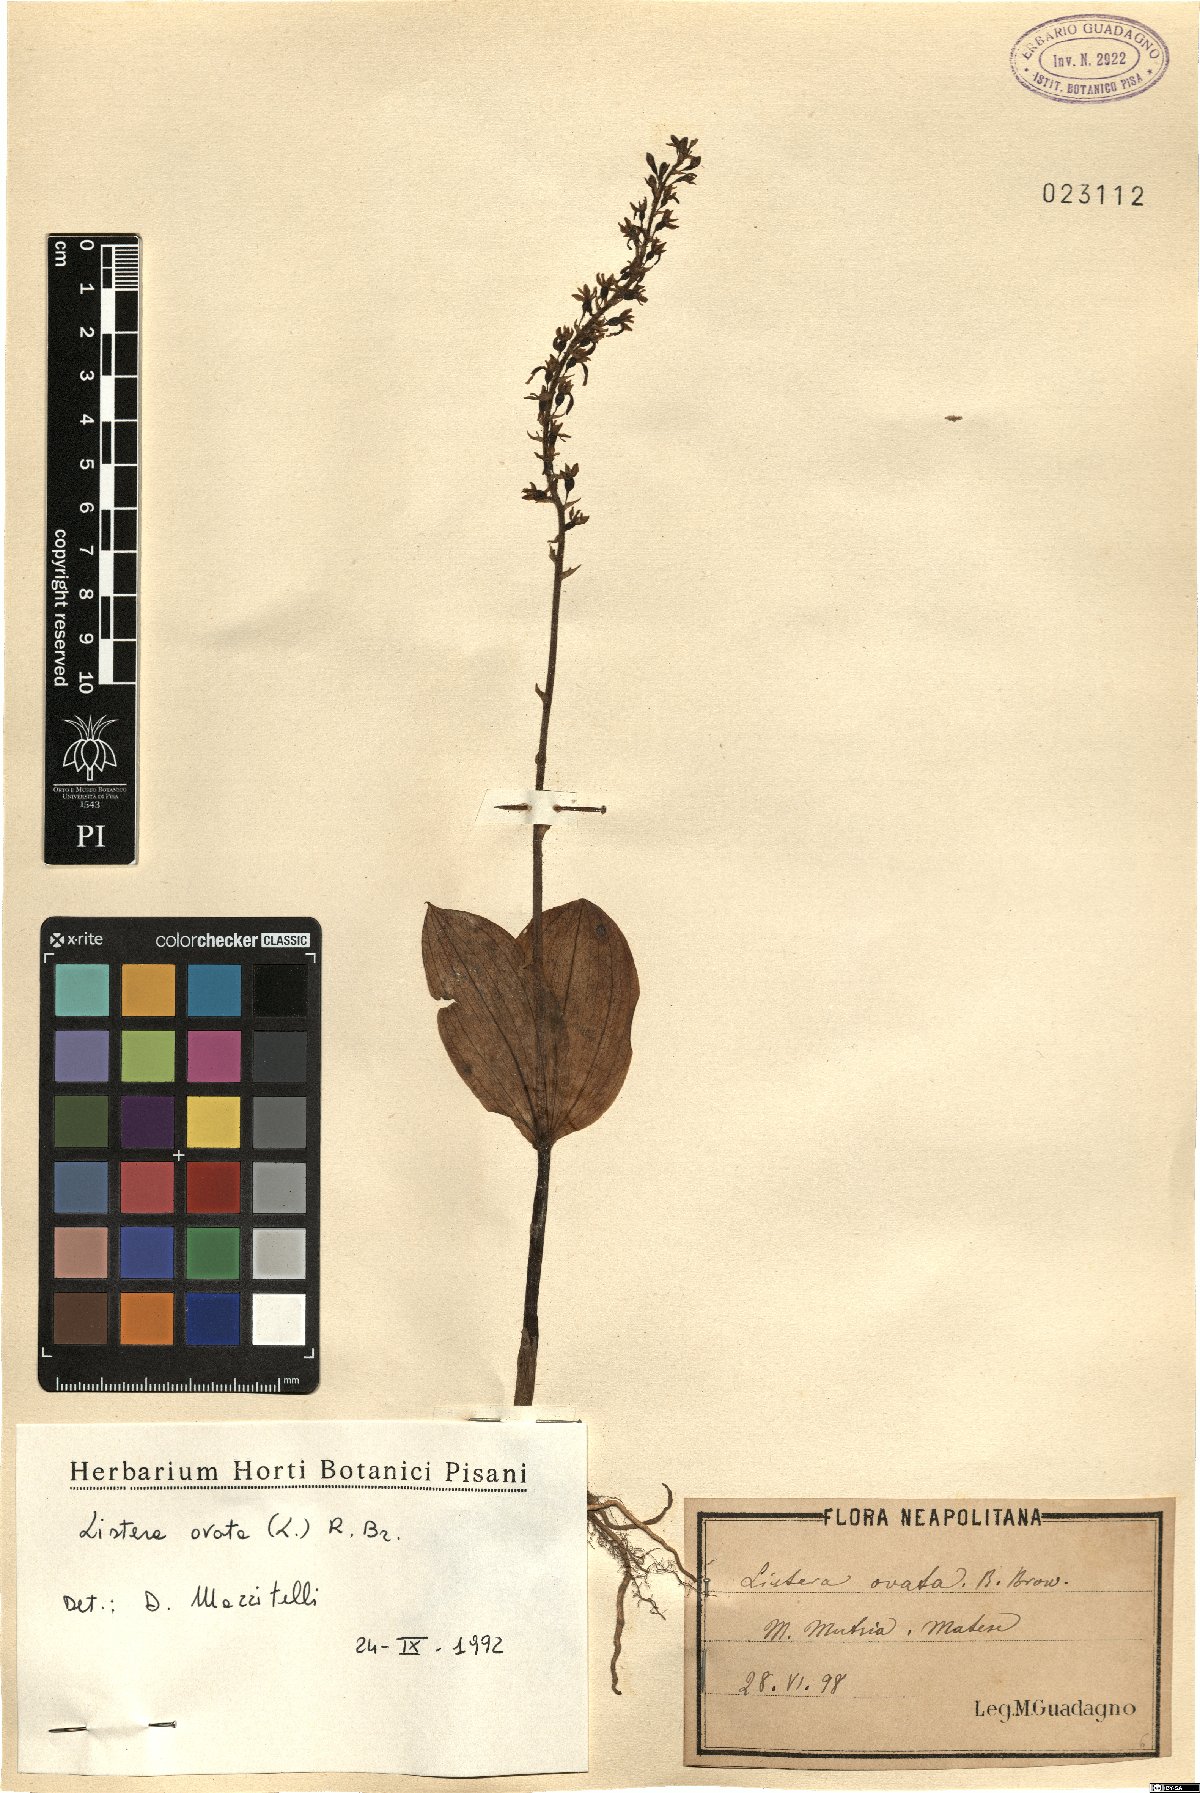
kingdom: Plantae
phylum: Tracheophyta
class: Liliopsida
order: Asparagales
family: Orchidaceae
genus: Neottia
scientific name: Neottia ovata
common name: Common twayblade
